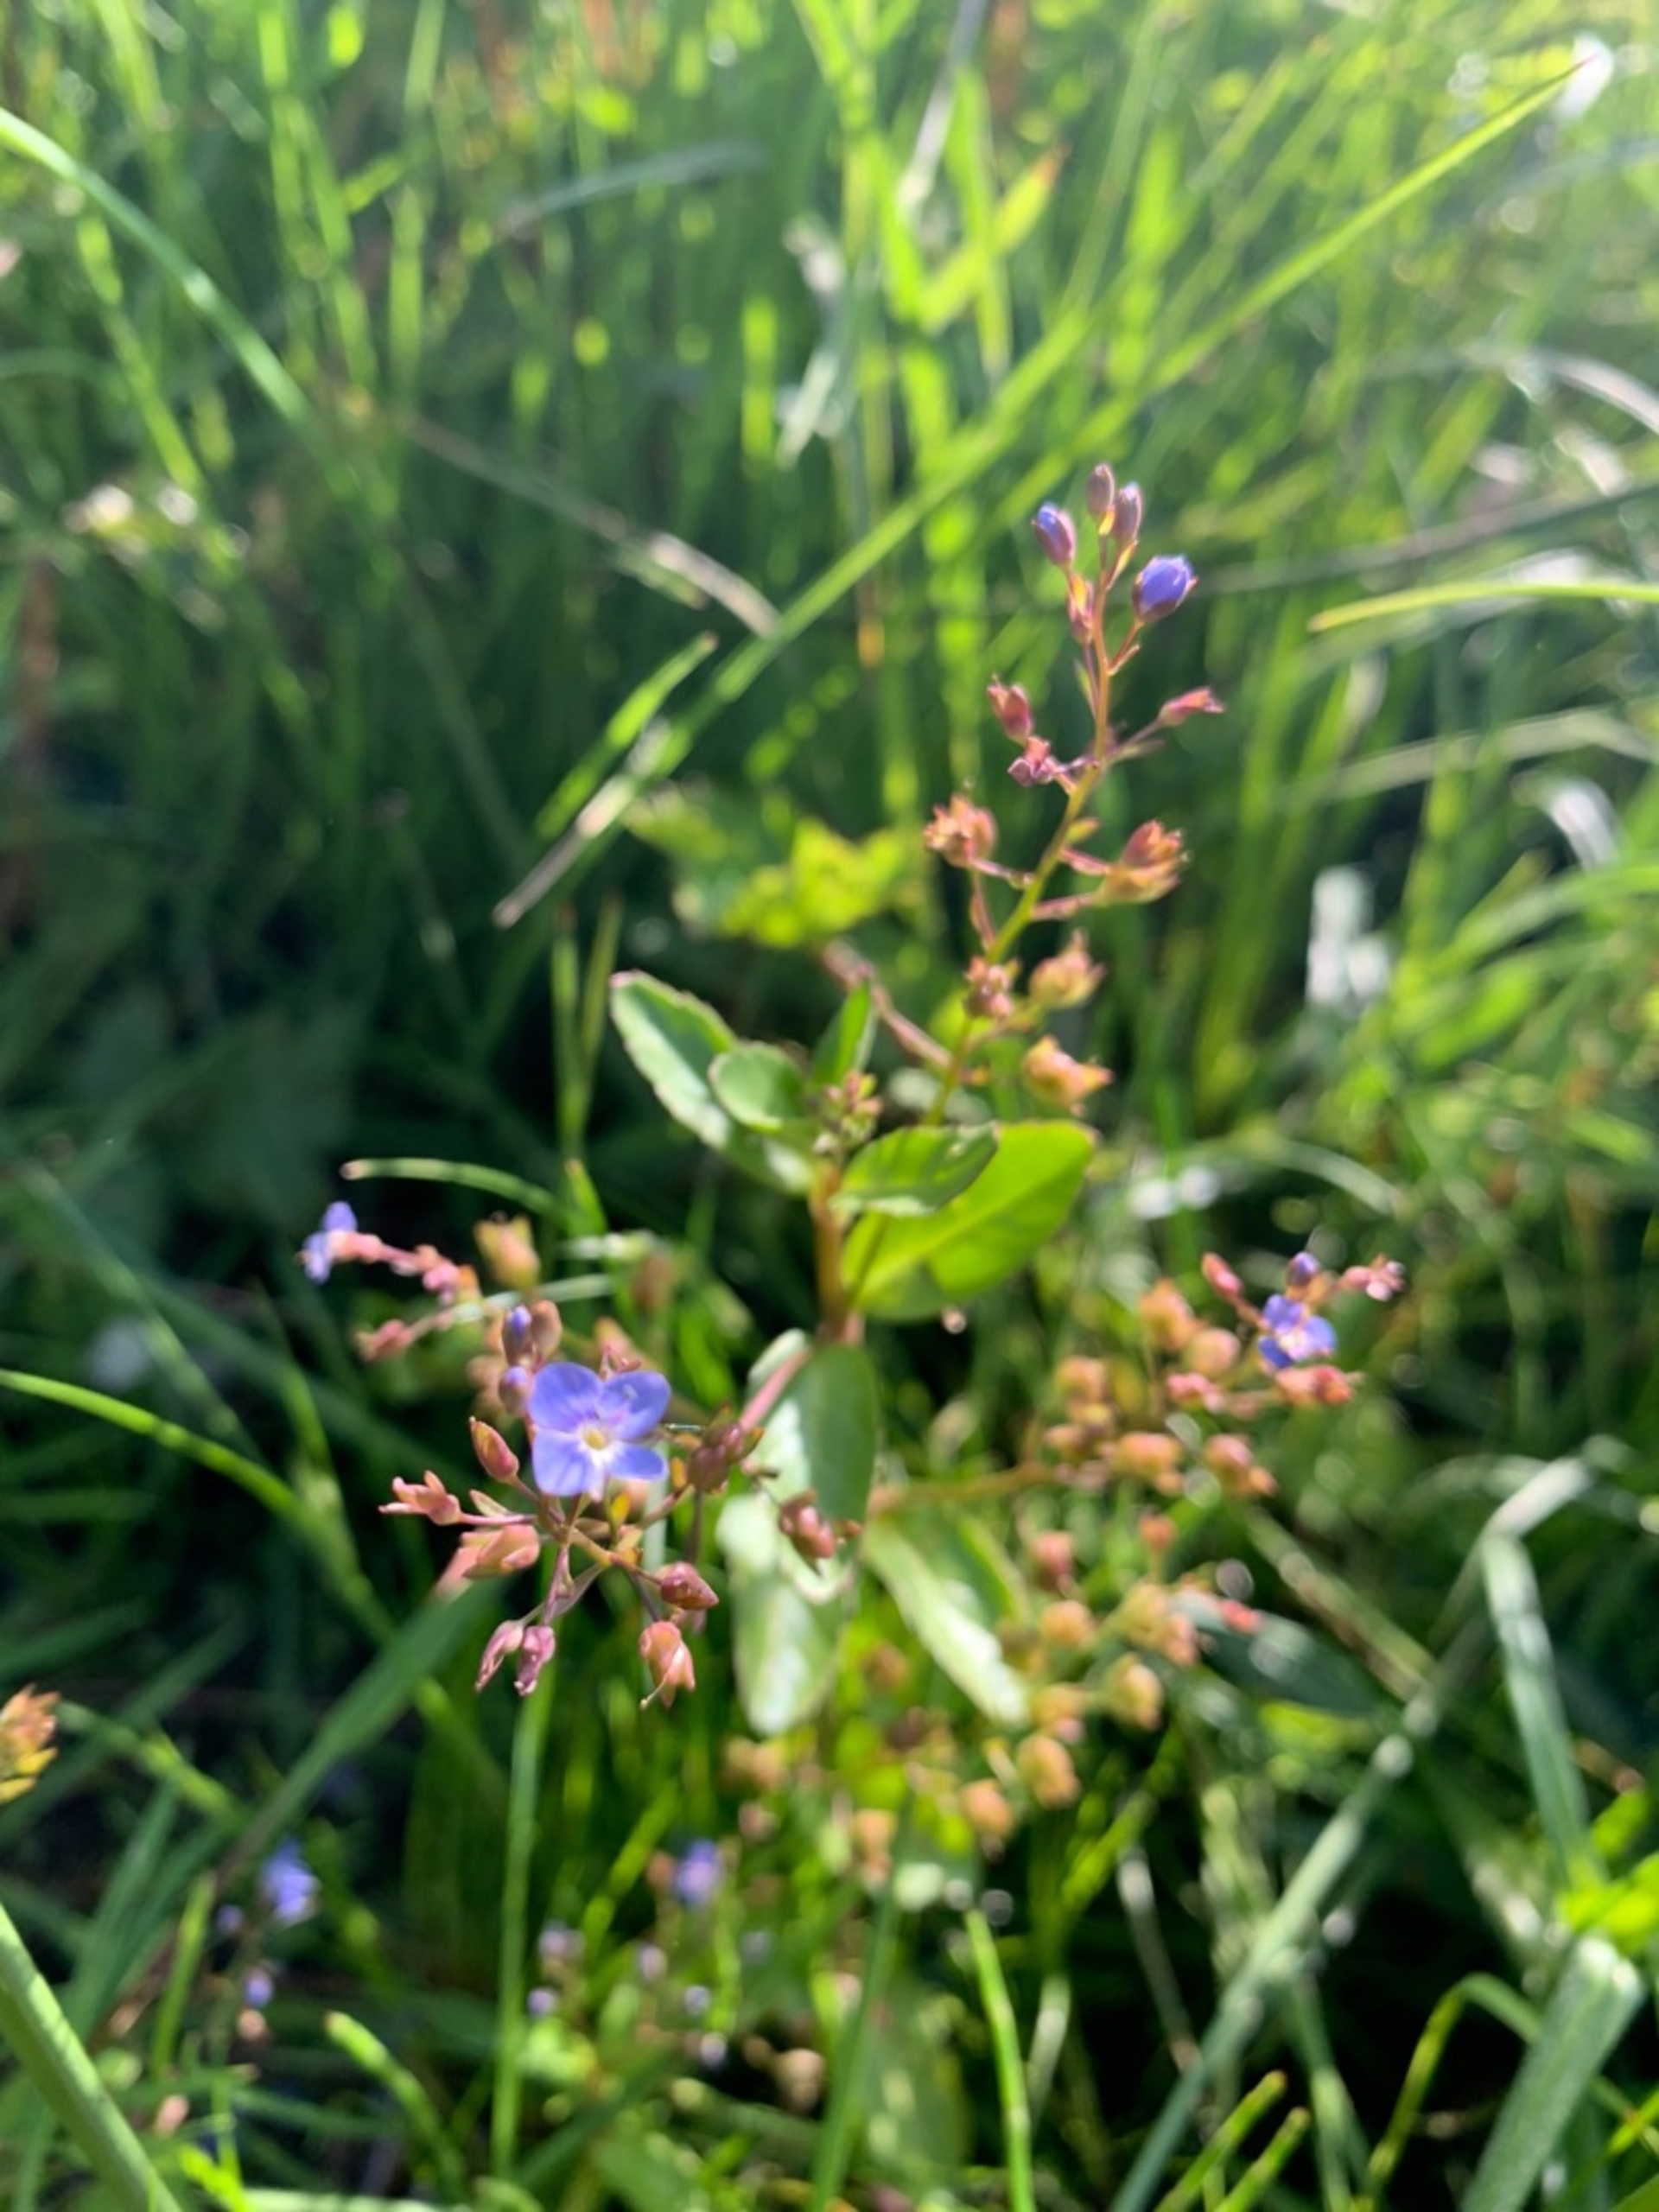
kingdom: Plantae
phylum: Tracheophyta
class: Magnoliopsida
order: Lamiales
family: Plantaginaceae
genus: Veronica
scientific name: Veronica beccabunga
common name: Tykbladet ærenpris
